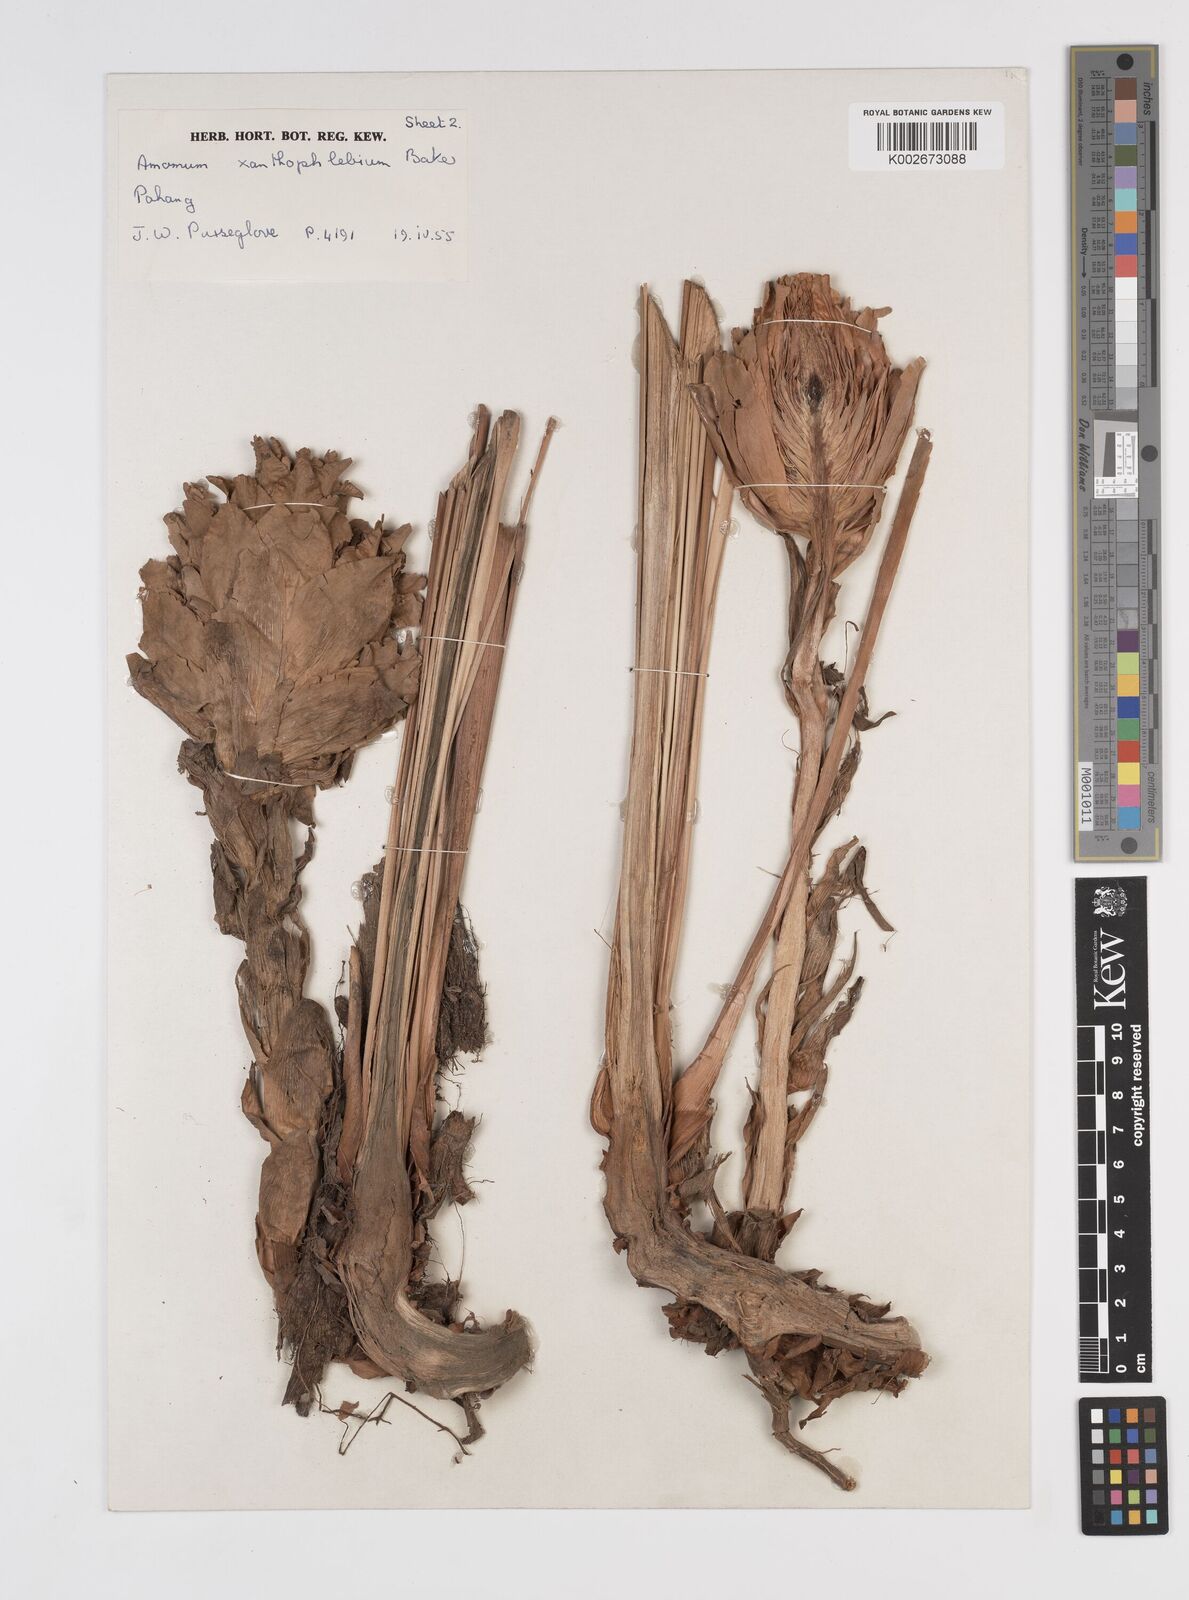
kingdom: Plantae
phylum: Tracheophyta
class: Liliopsida
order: Zingiberales
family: Zingiberaceae
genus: Conamomum
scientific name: Conamomum xanthophlebium
